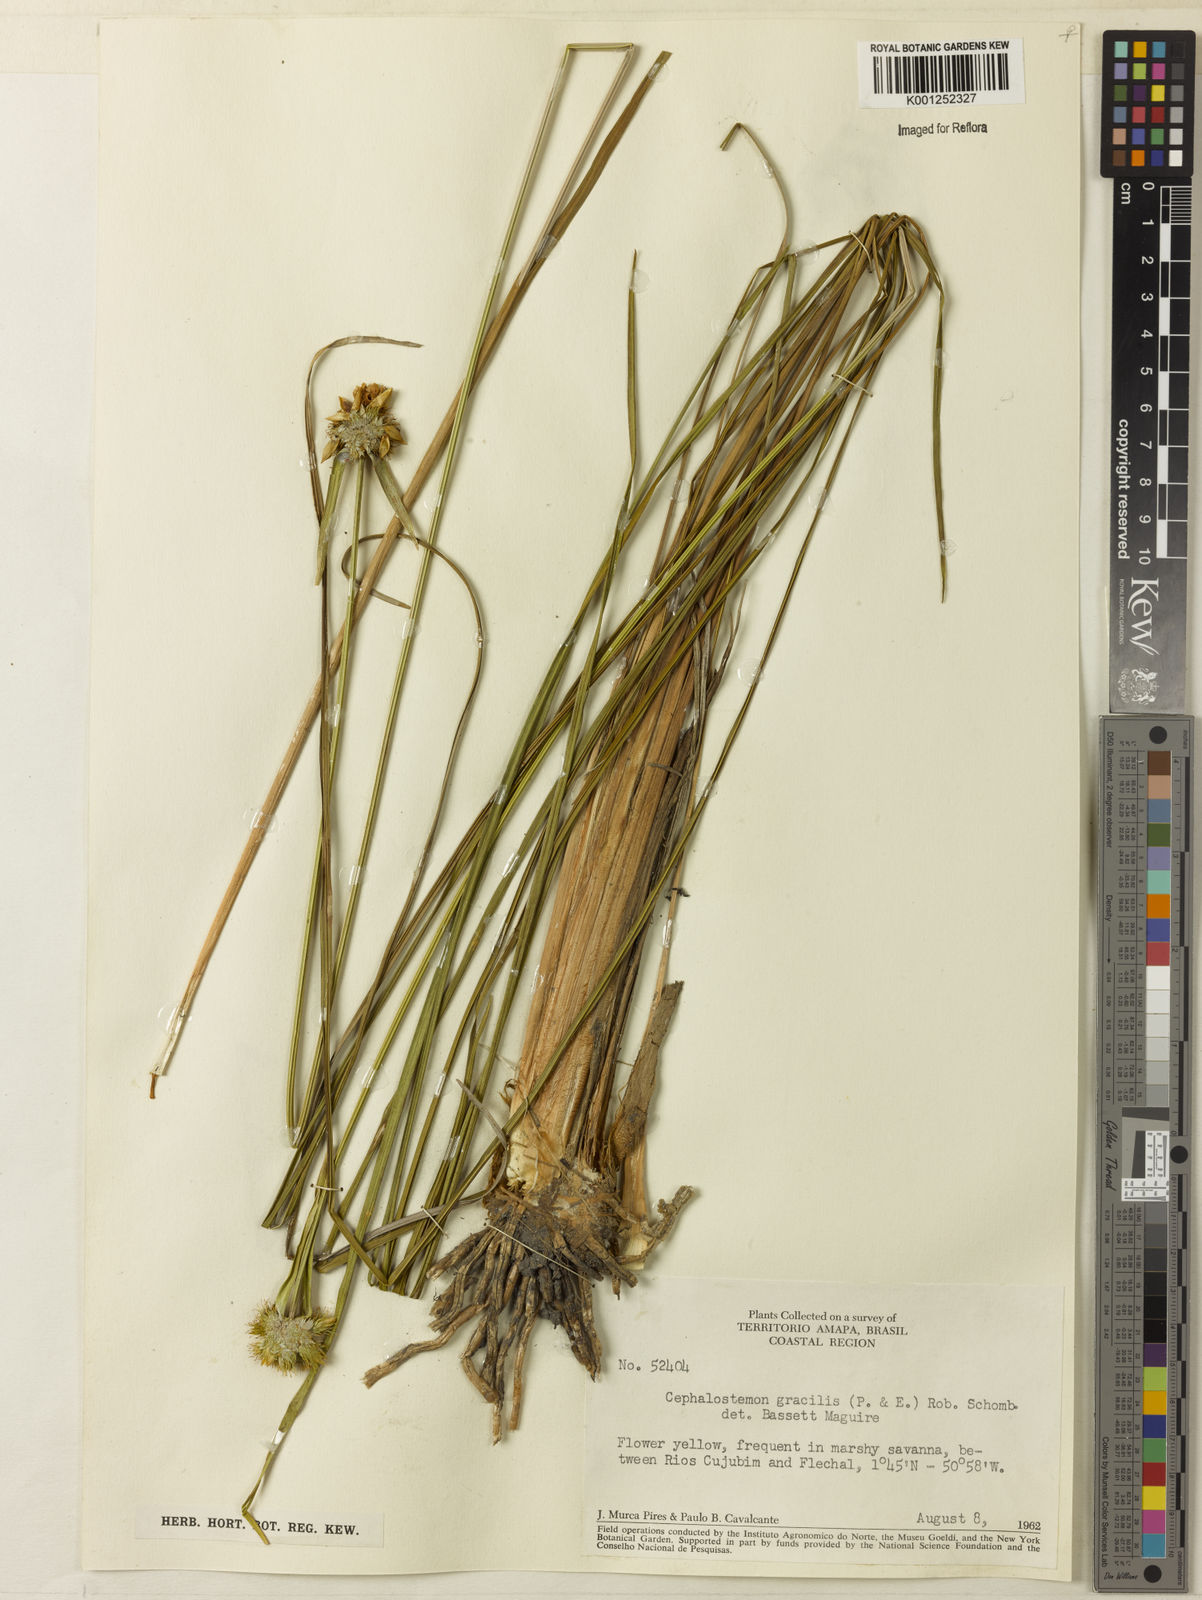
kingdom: Plantae
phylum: Tracheophyta
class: Liliopsida
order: Poales
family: Rapateaceae
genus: Cephalostemon
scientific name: Cephalostemon gracilis
